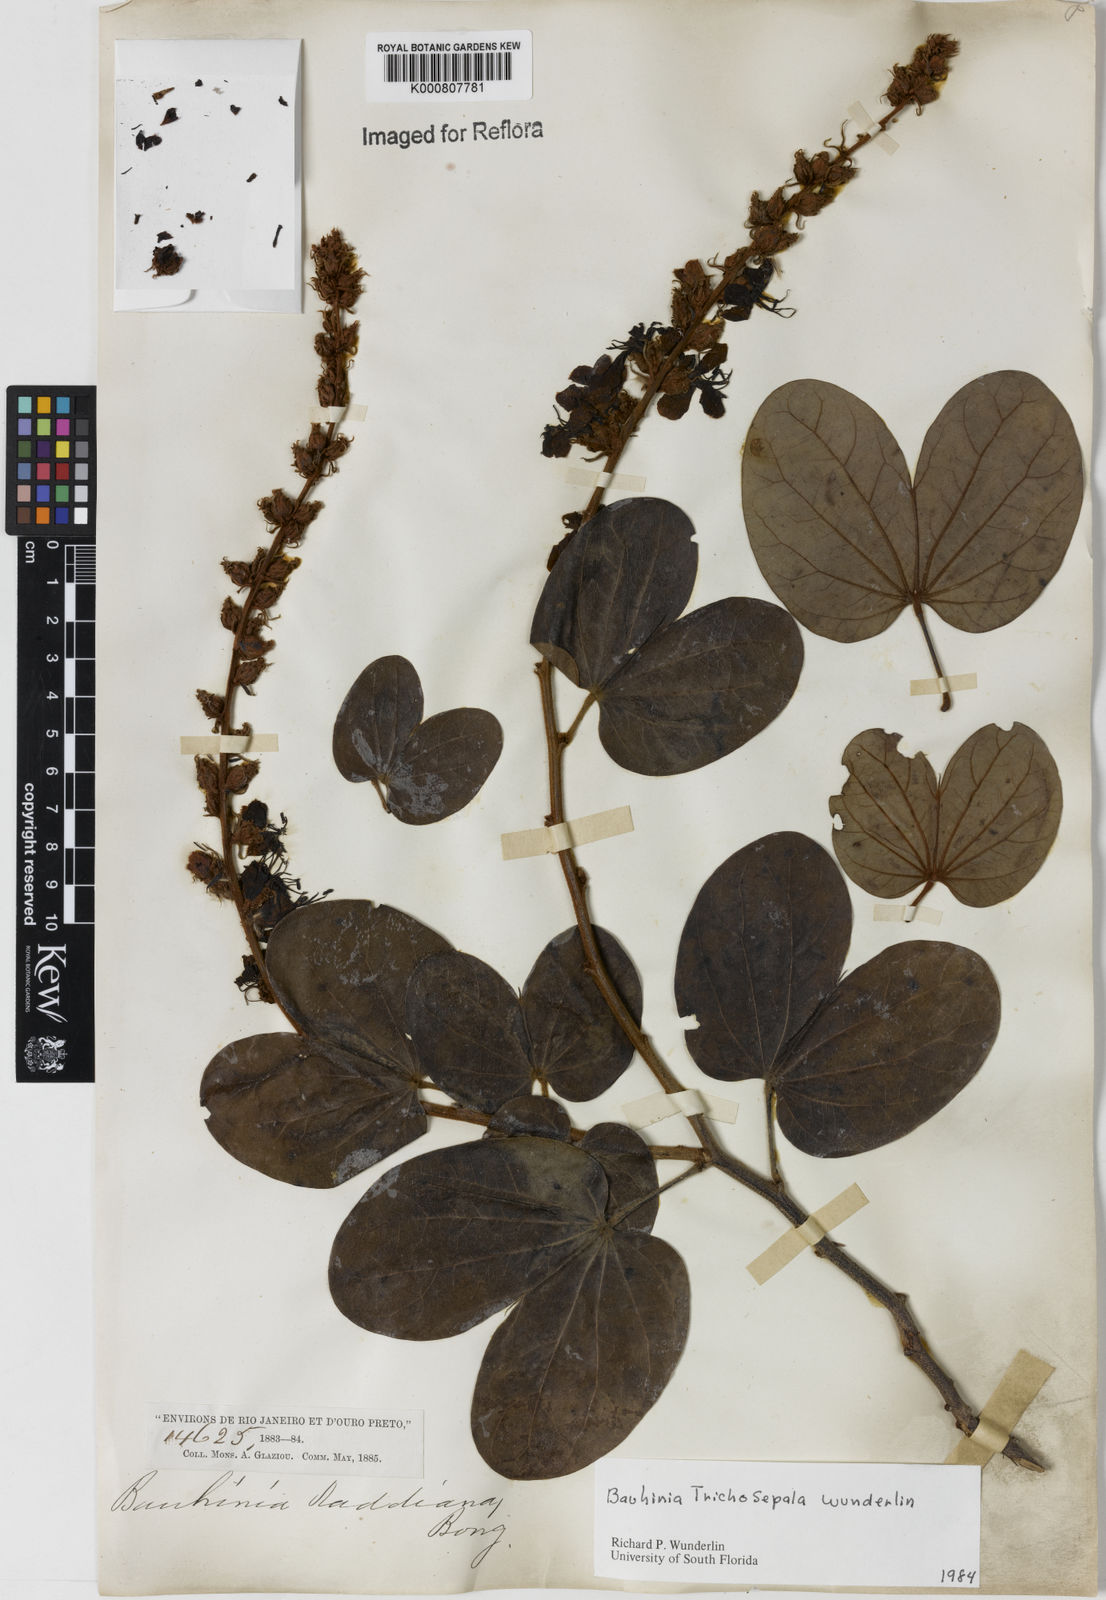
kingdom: Plantae
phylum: Tracheophyta
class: Magnoliopsida
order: Fabales
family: Fabaceae
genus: Schnella
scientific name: Schnella trichosepala
